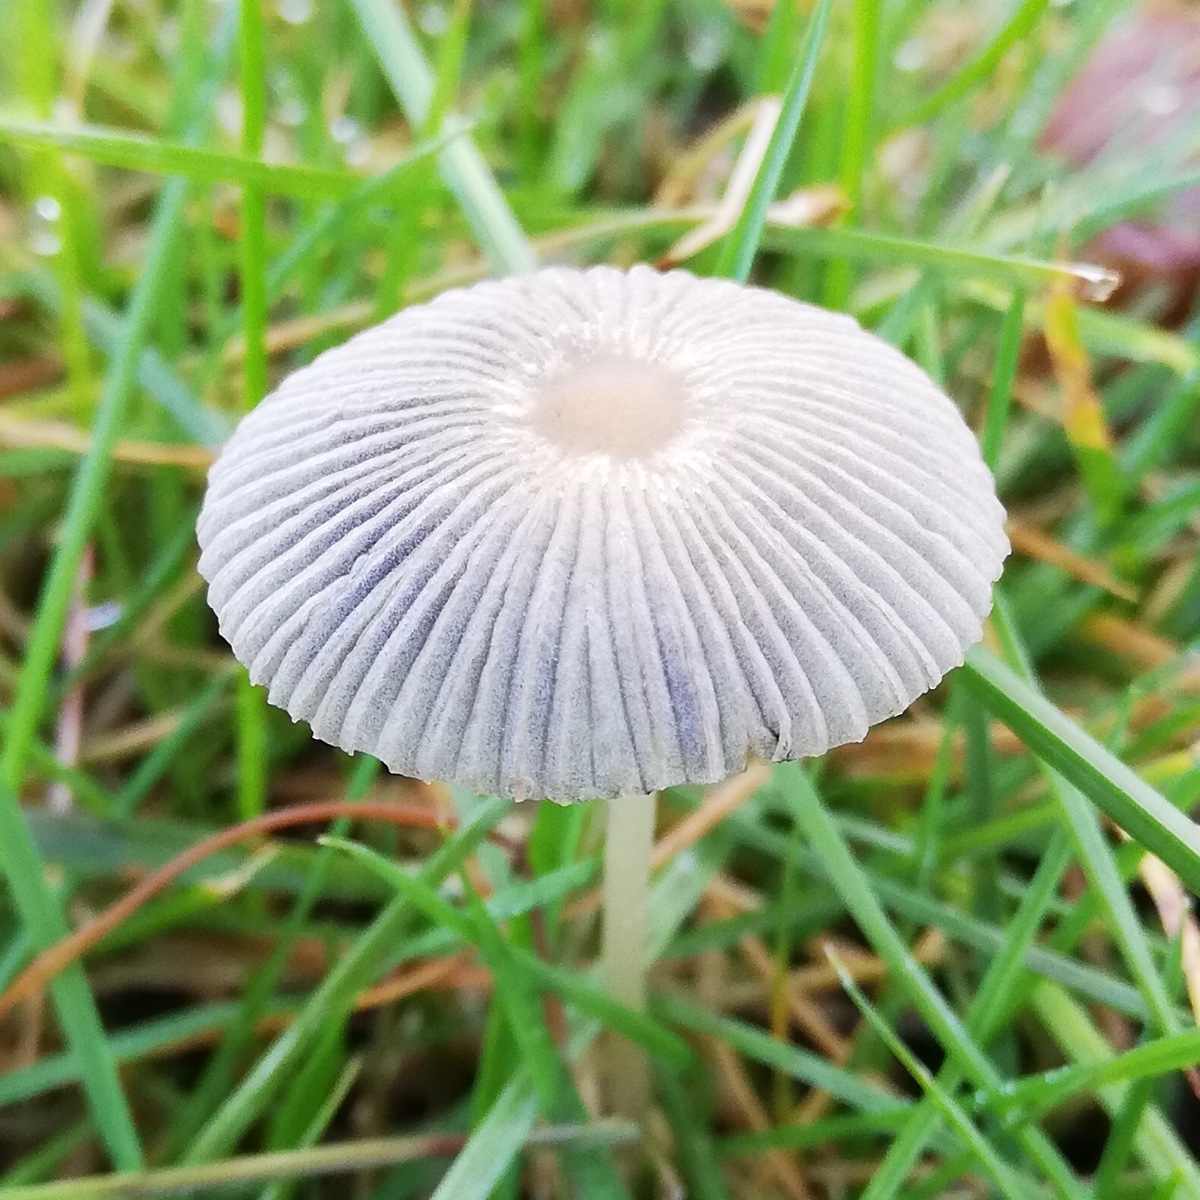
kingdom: Fungi
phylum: Basidiomycota
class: Agaricomycetes
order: Agaricales
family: Psathyrellaceae
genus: Parasola
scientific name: Parasola
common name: hjulhat
